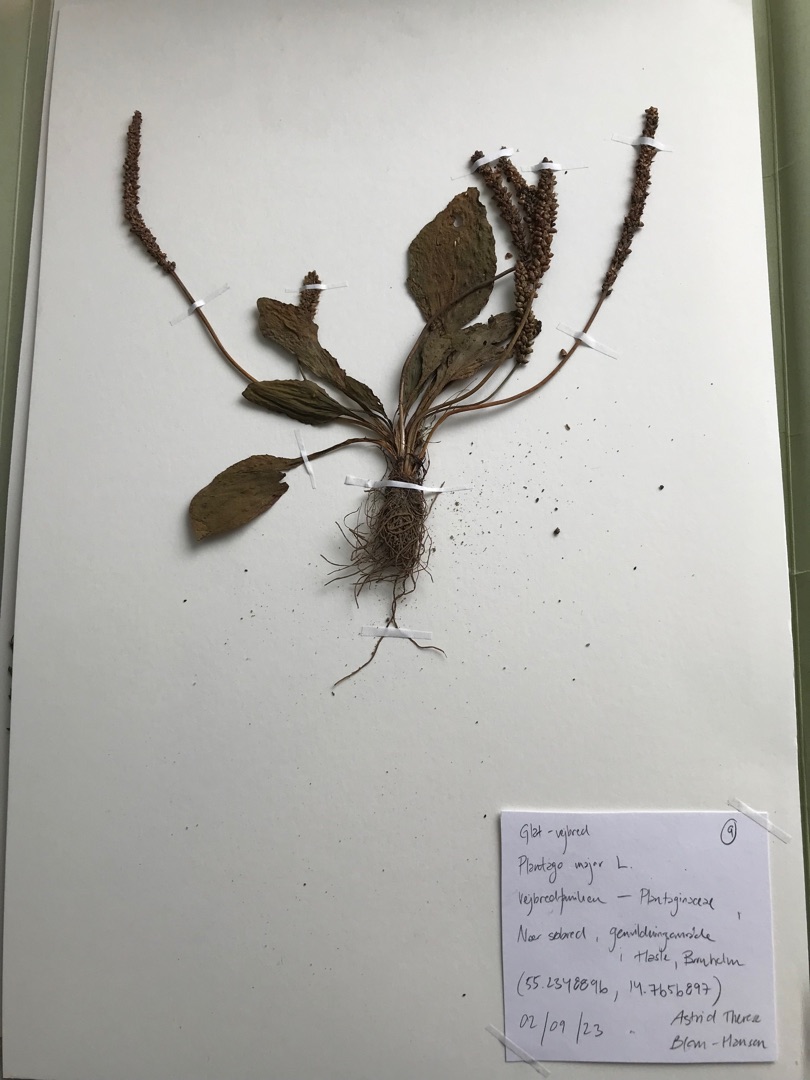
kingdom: Plantae
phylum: Tracheophyta
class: Magnoliopsida
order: Lamiales
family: Plantaginaceae
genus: Plantago
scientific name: Plantago major
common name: Glat vejbred
